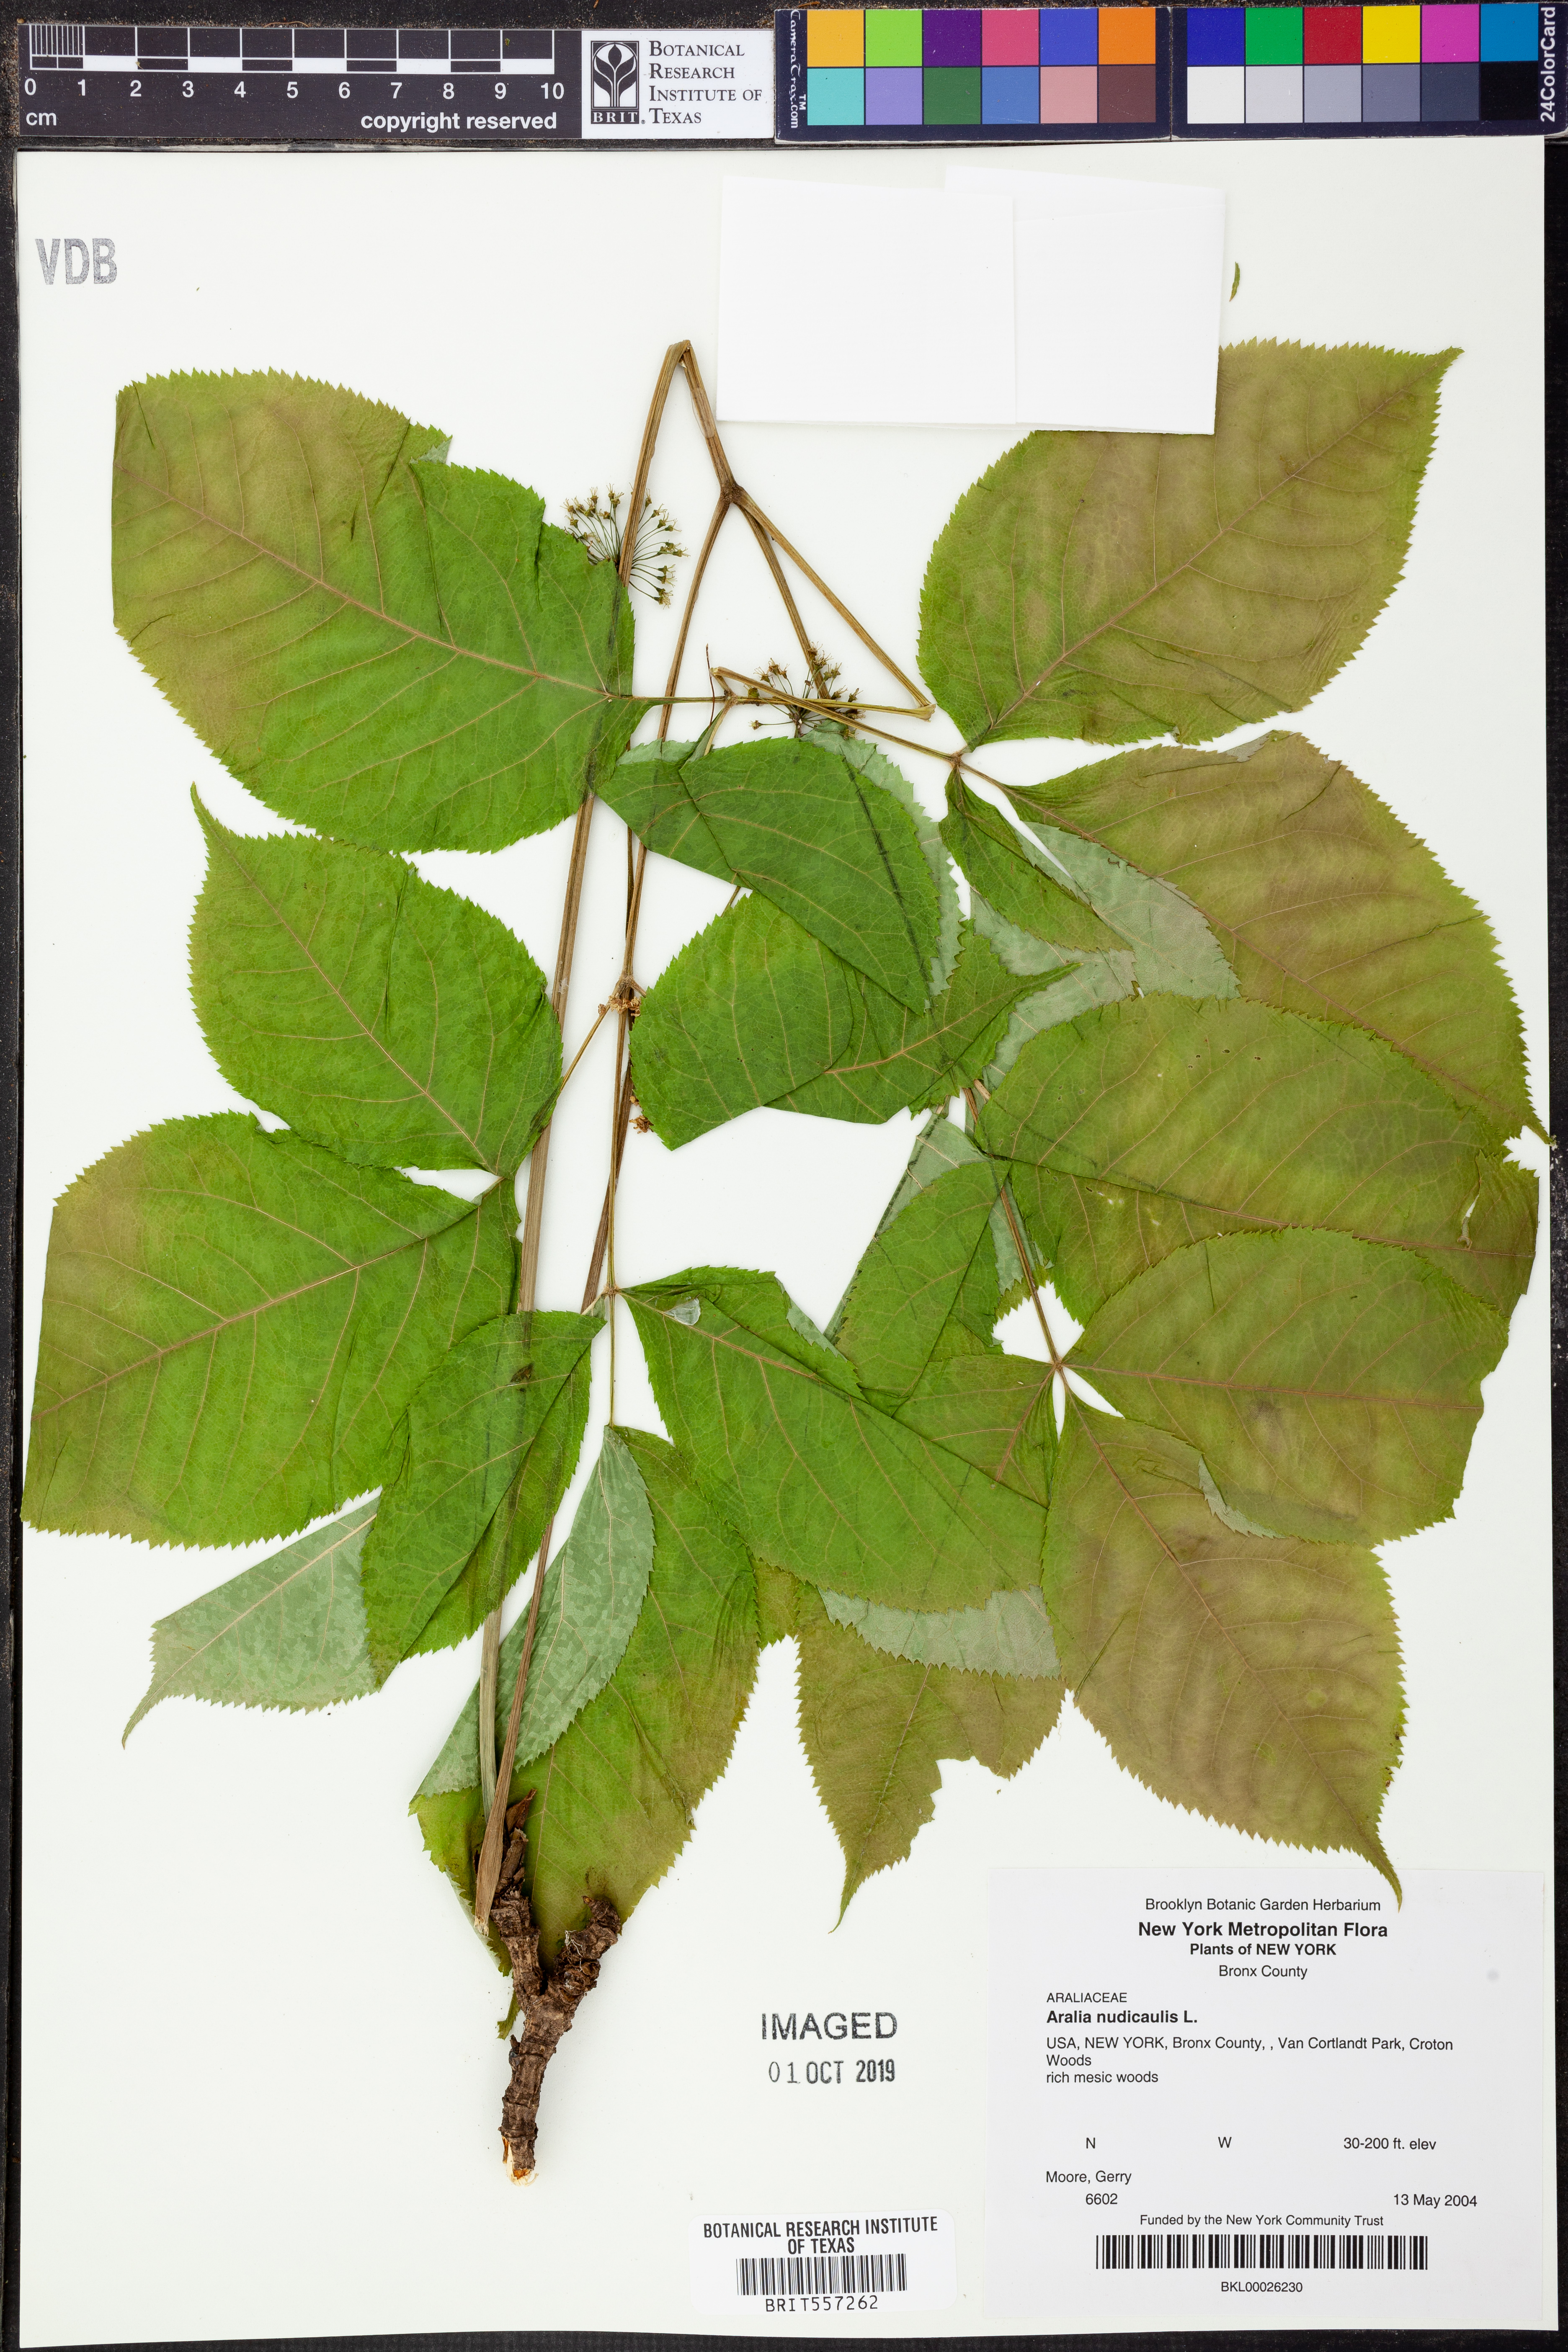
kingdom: Plantae
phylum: Tracheophyta
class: Magnoliopsida
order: Apiales
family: Araliaceae
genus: Aralia
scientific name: Aralia nudicaulis
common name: Wild sarsaparilla
